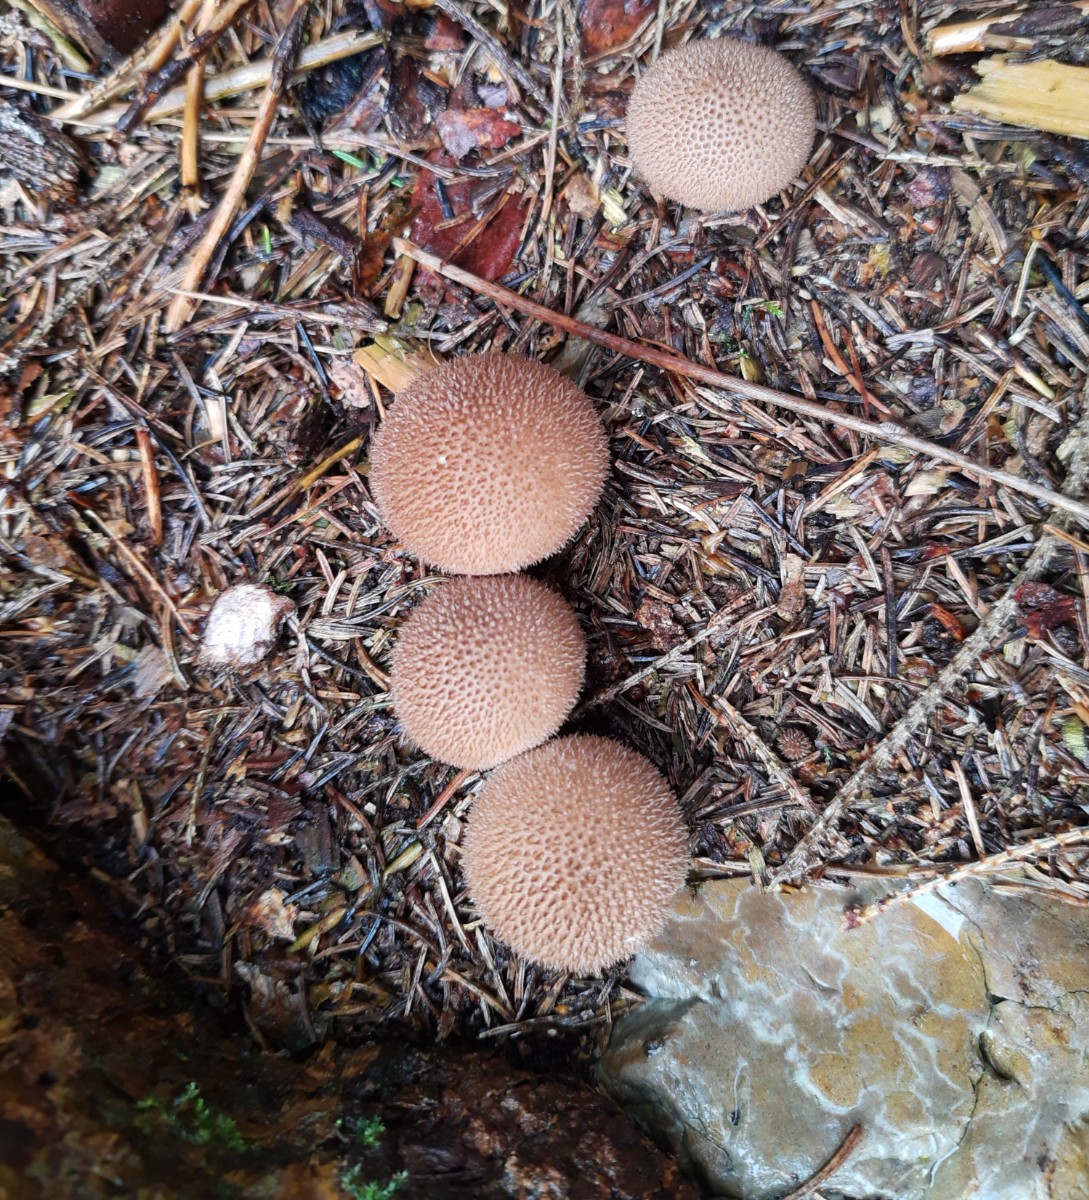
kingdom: Fungi
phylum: Basidiomycota
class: Agaricomycetes
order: Agaricales
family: Lycoperdaceae
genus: Lycoperdon
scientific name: Lycoperdon nigrescens
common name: sortagtig støvbold
